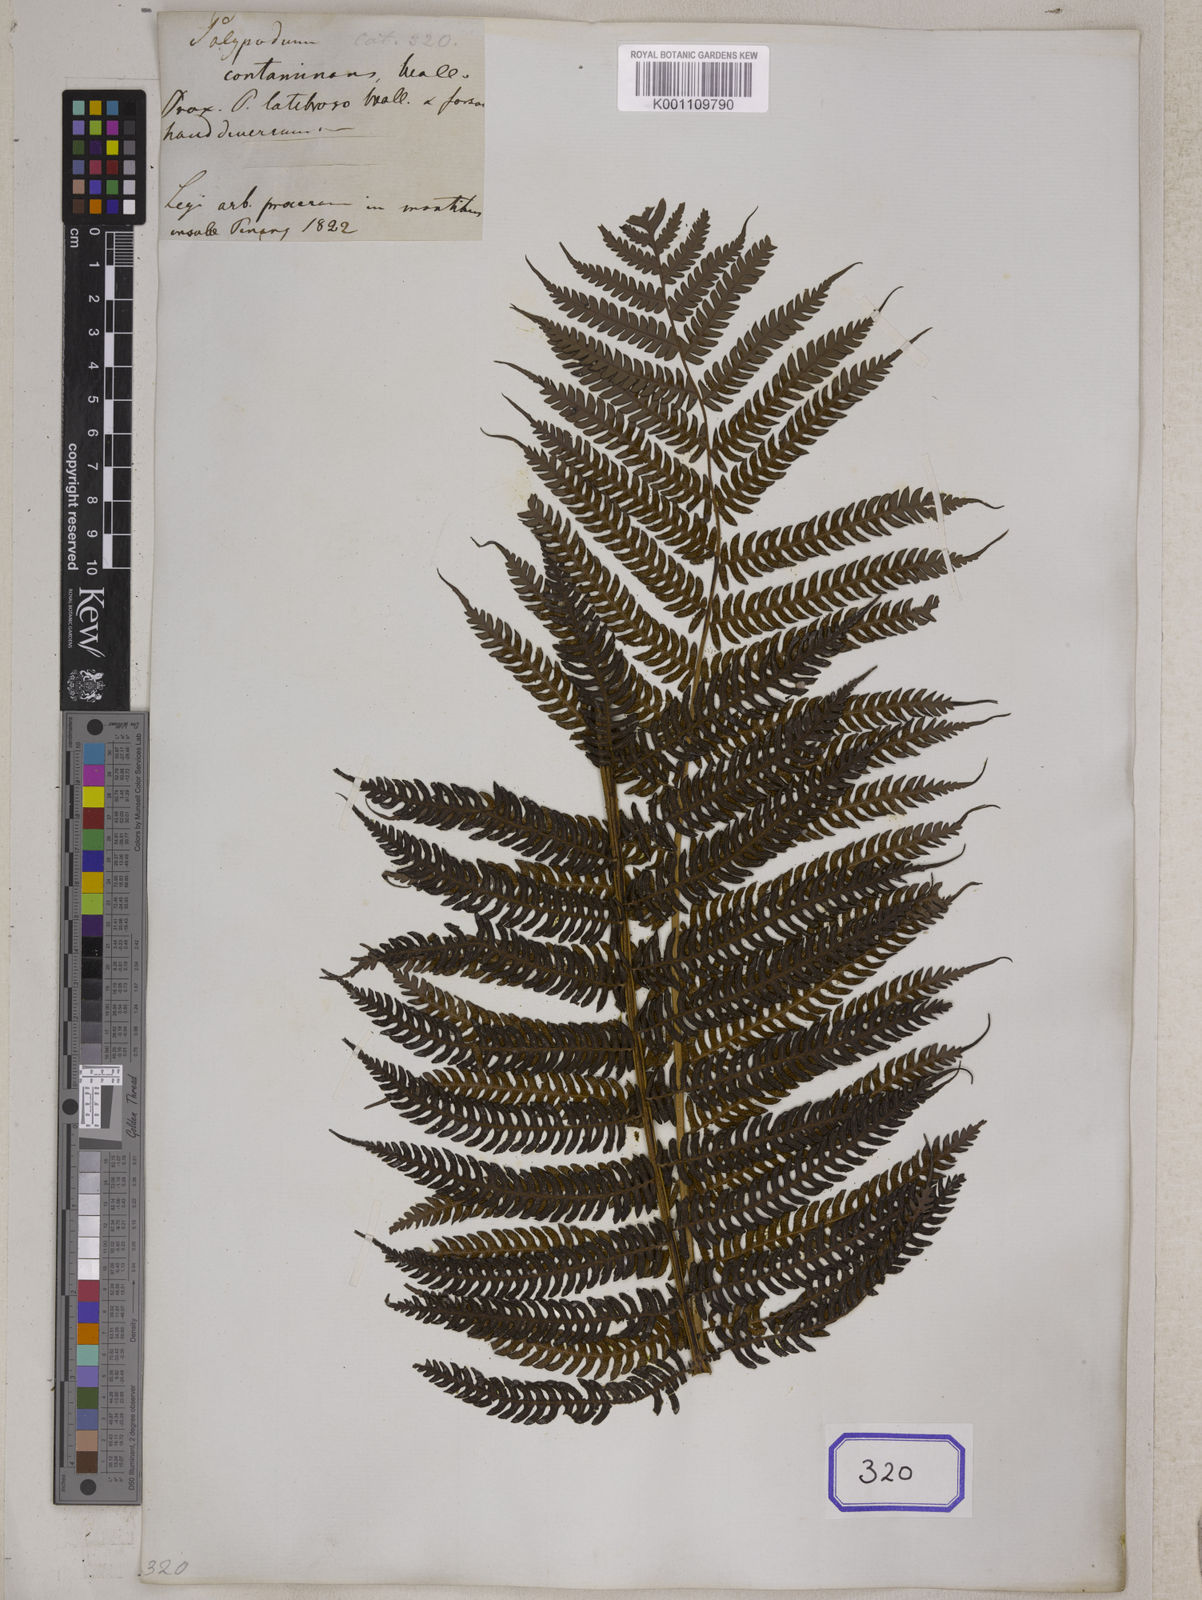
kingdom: Plantae
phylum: Tracheophyta
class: Polypodiopsida
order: Cyatheales
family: Cyatheaceae
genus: Sphaeropteris
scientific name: Sphaeropteris glauca
